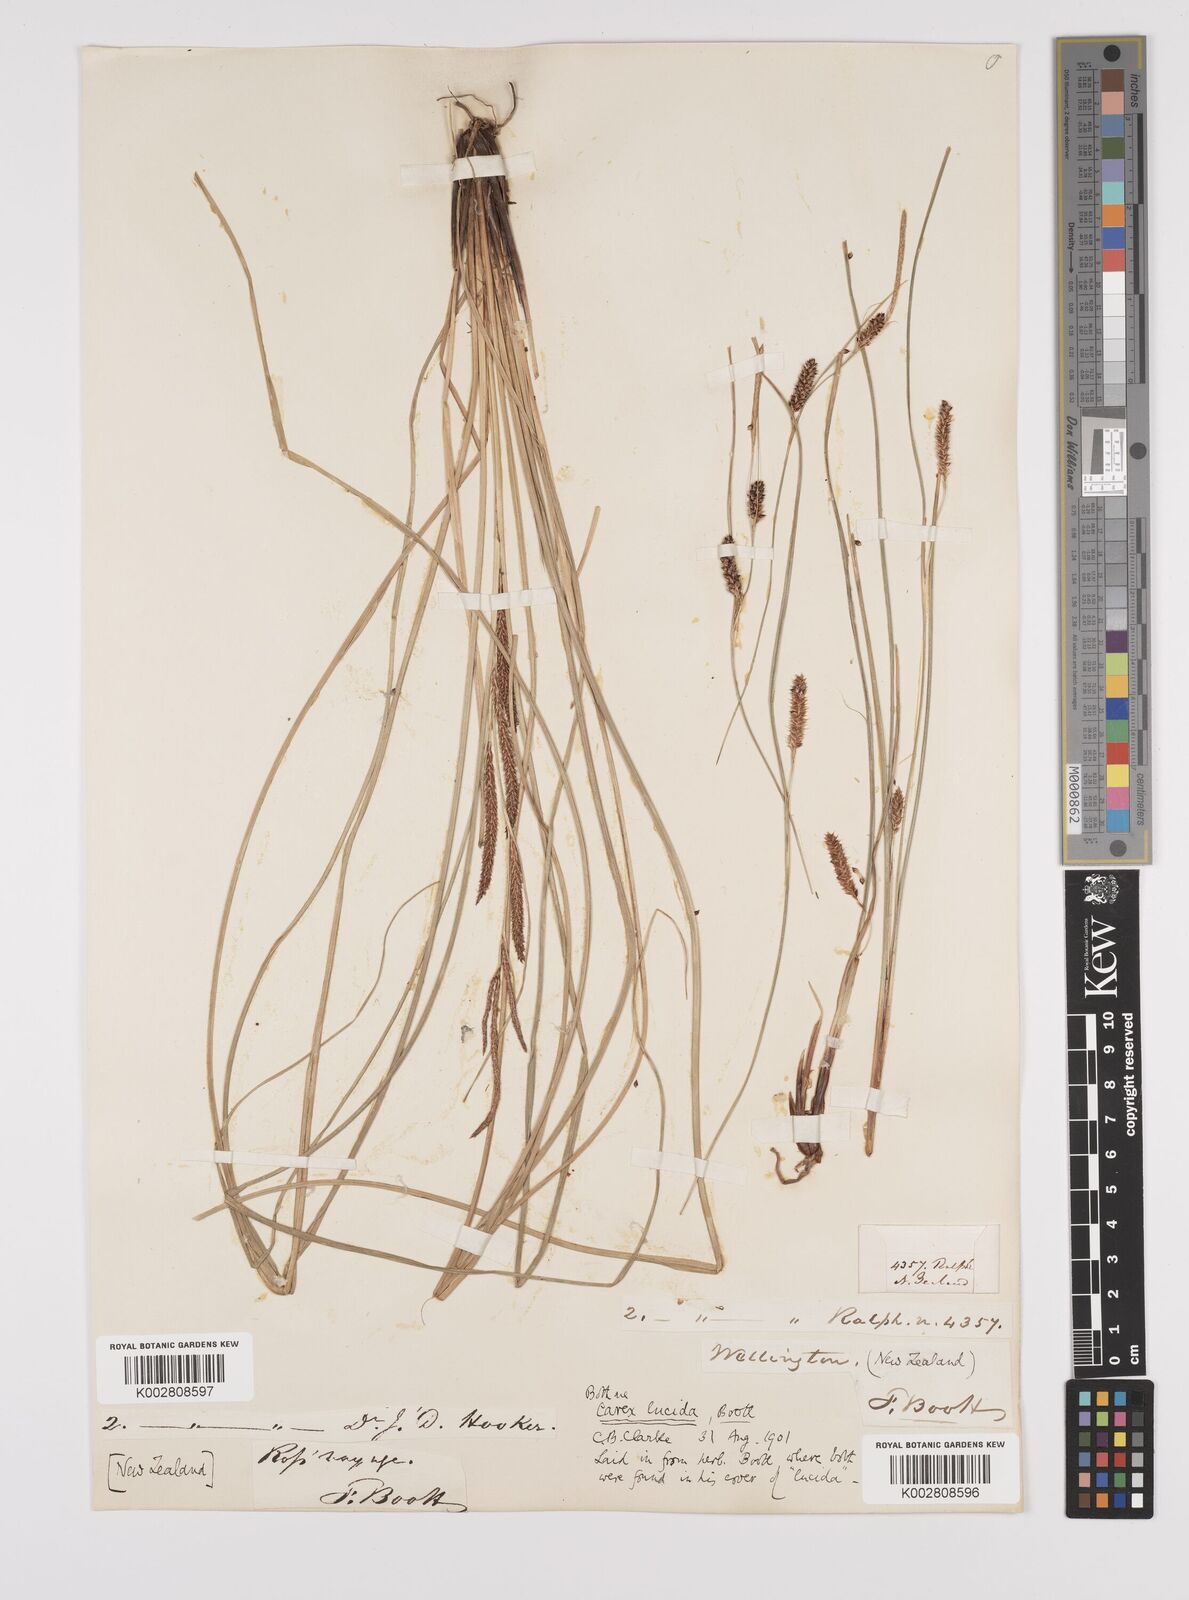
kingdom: Plantae
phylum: Tracheophyta
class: Liliopsida
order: Poales
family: Cyperaceae
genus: Carex
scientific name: Carex flagellifera
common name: Glen murray tussock
